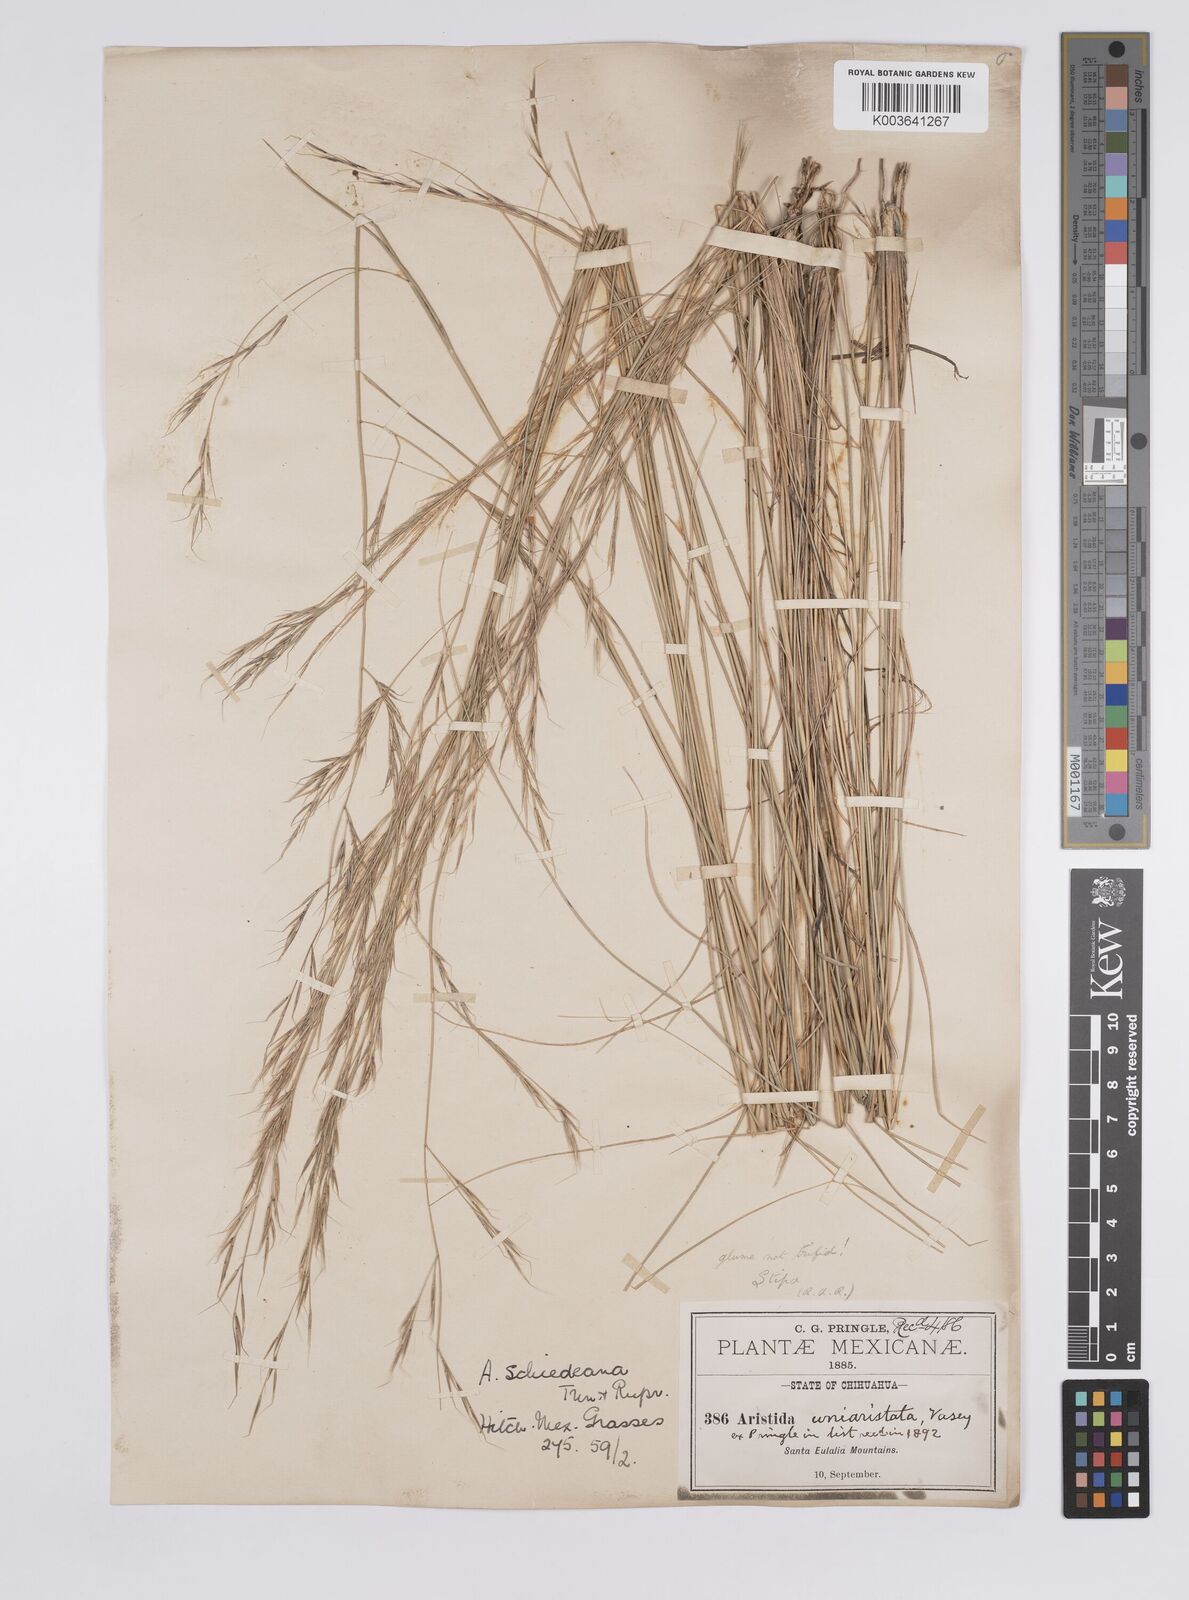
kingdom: Plantae
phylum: Tracheophyta
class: Liliopsida
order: Poales
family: Poaceae
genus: Aristida
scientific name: Aristida schiedeana
